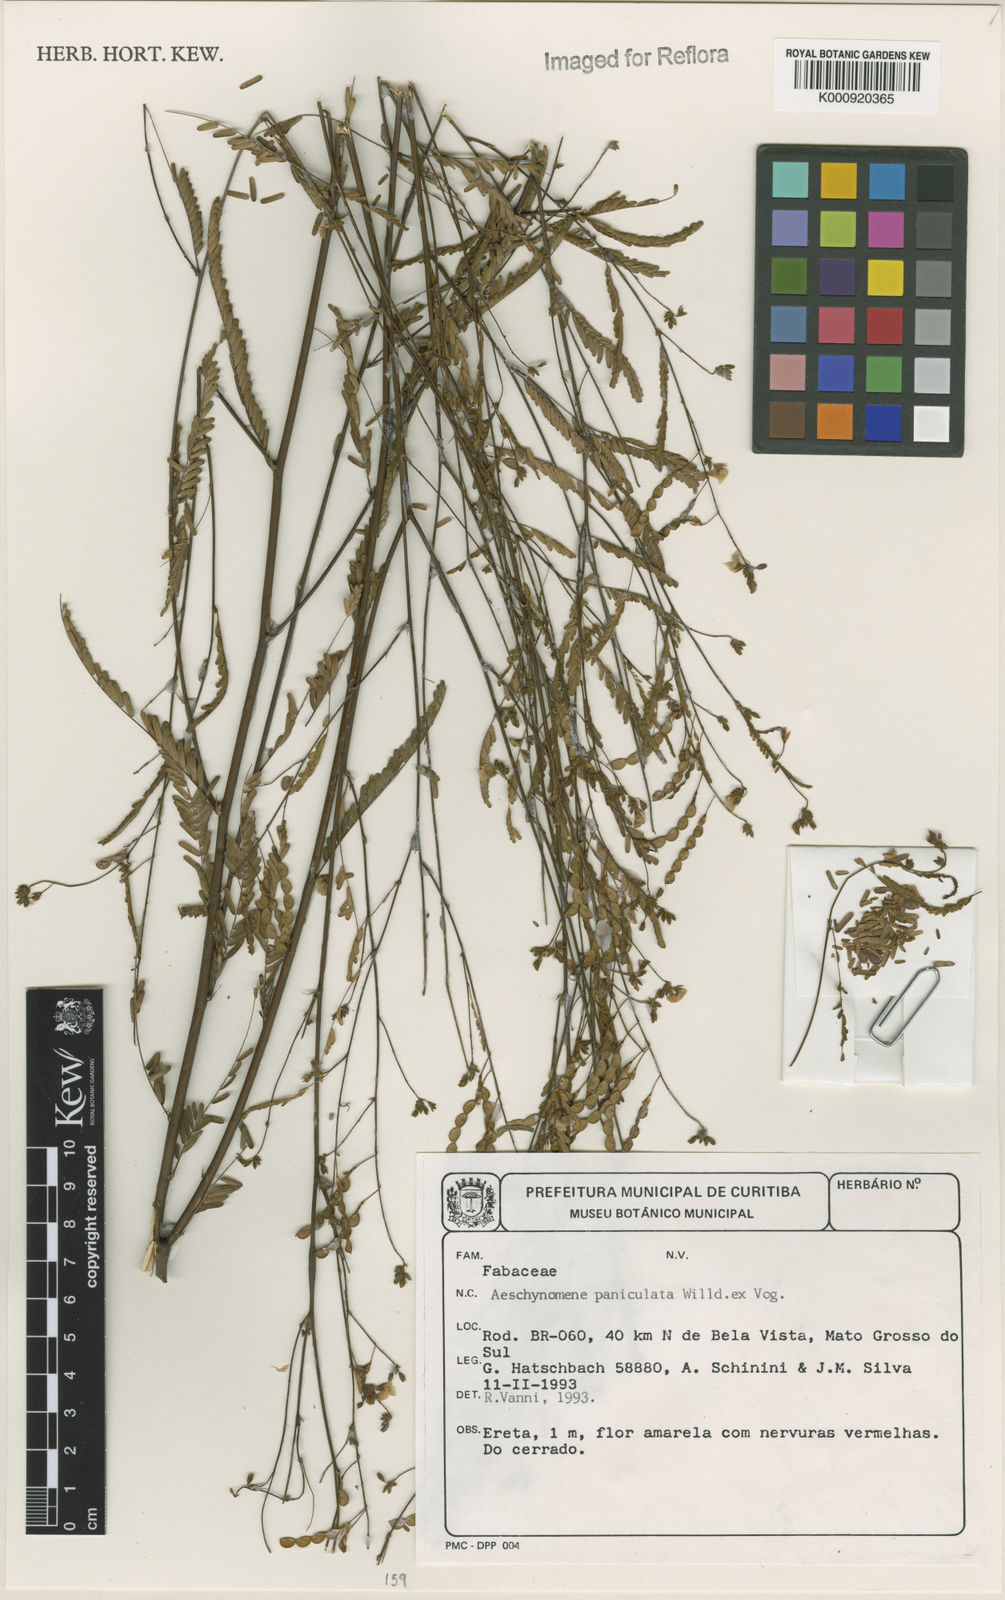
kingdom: Plantae
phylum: Tracheophyta
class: Magnoliopsida
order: Fabales
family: Fabaceae
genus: Ctenodon
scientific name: Ctenodon paniculatus
